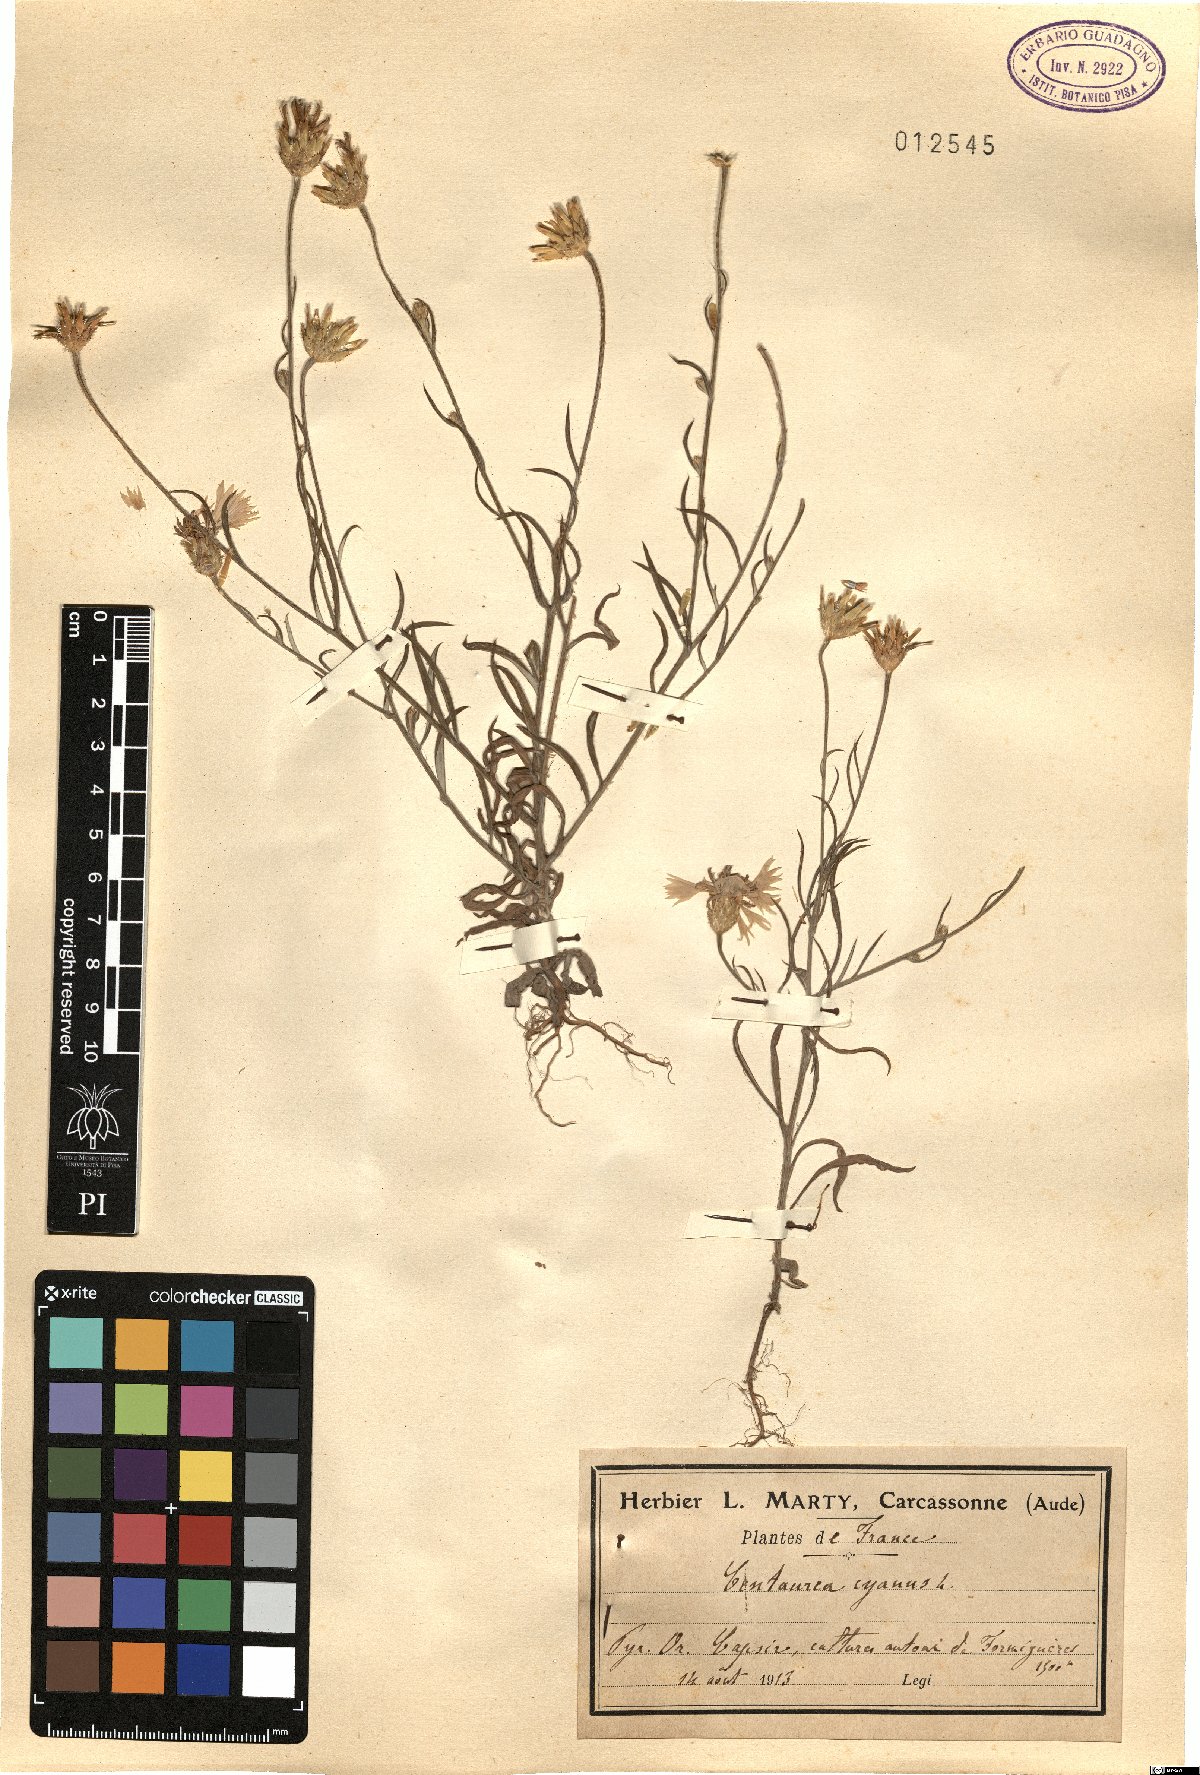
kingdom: Plantae
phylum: Tracheophyta
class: Magnoliopsida
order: Asterales
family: Asteraceae
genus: Centaurea
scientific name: Centaurea cyanus
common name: Cornflower
